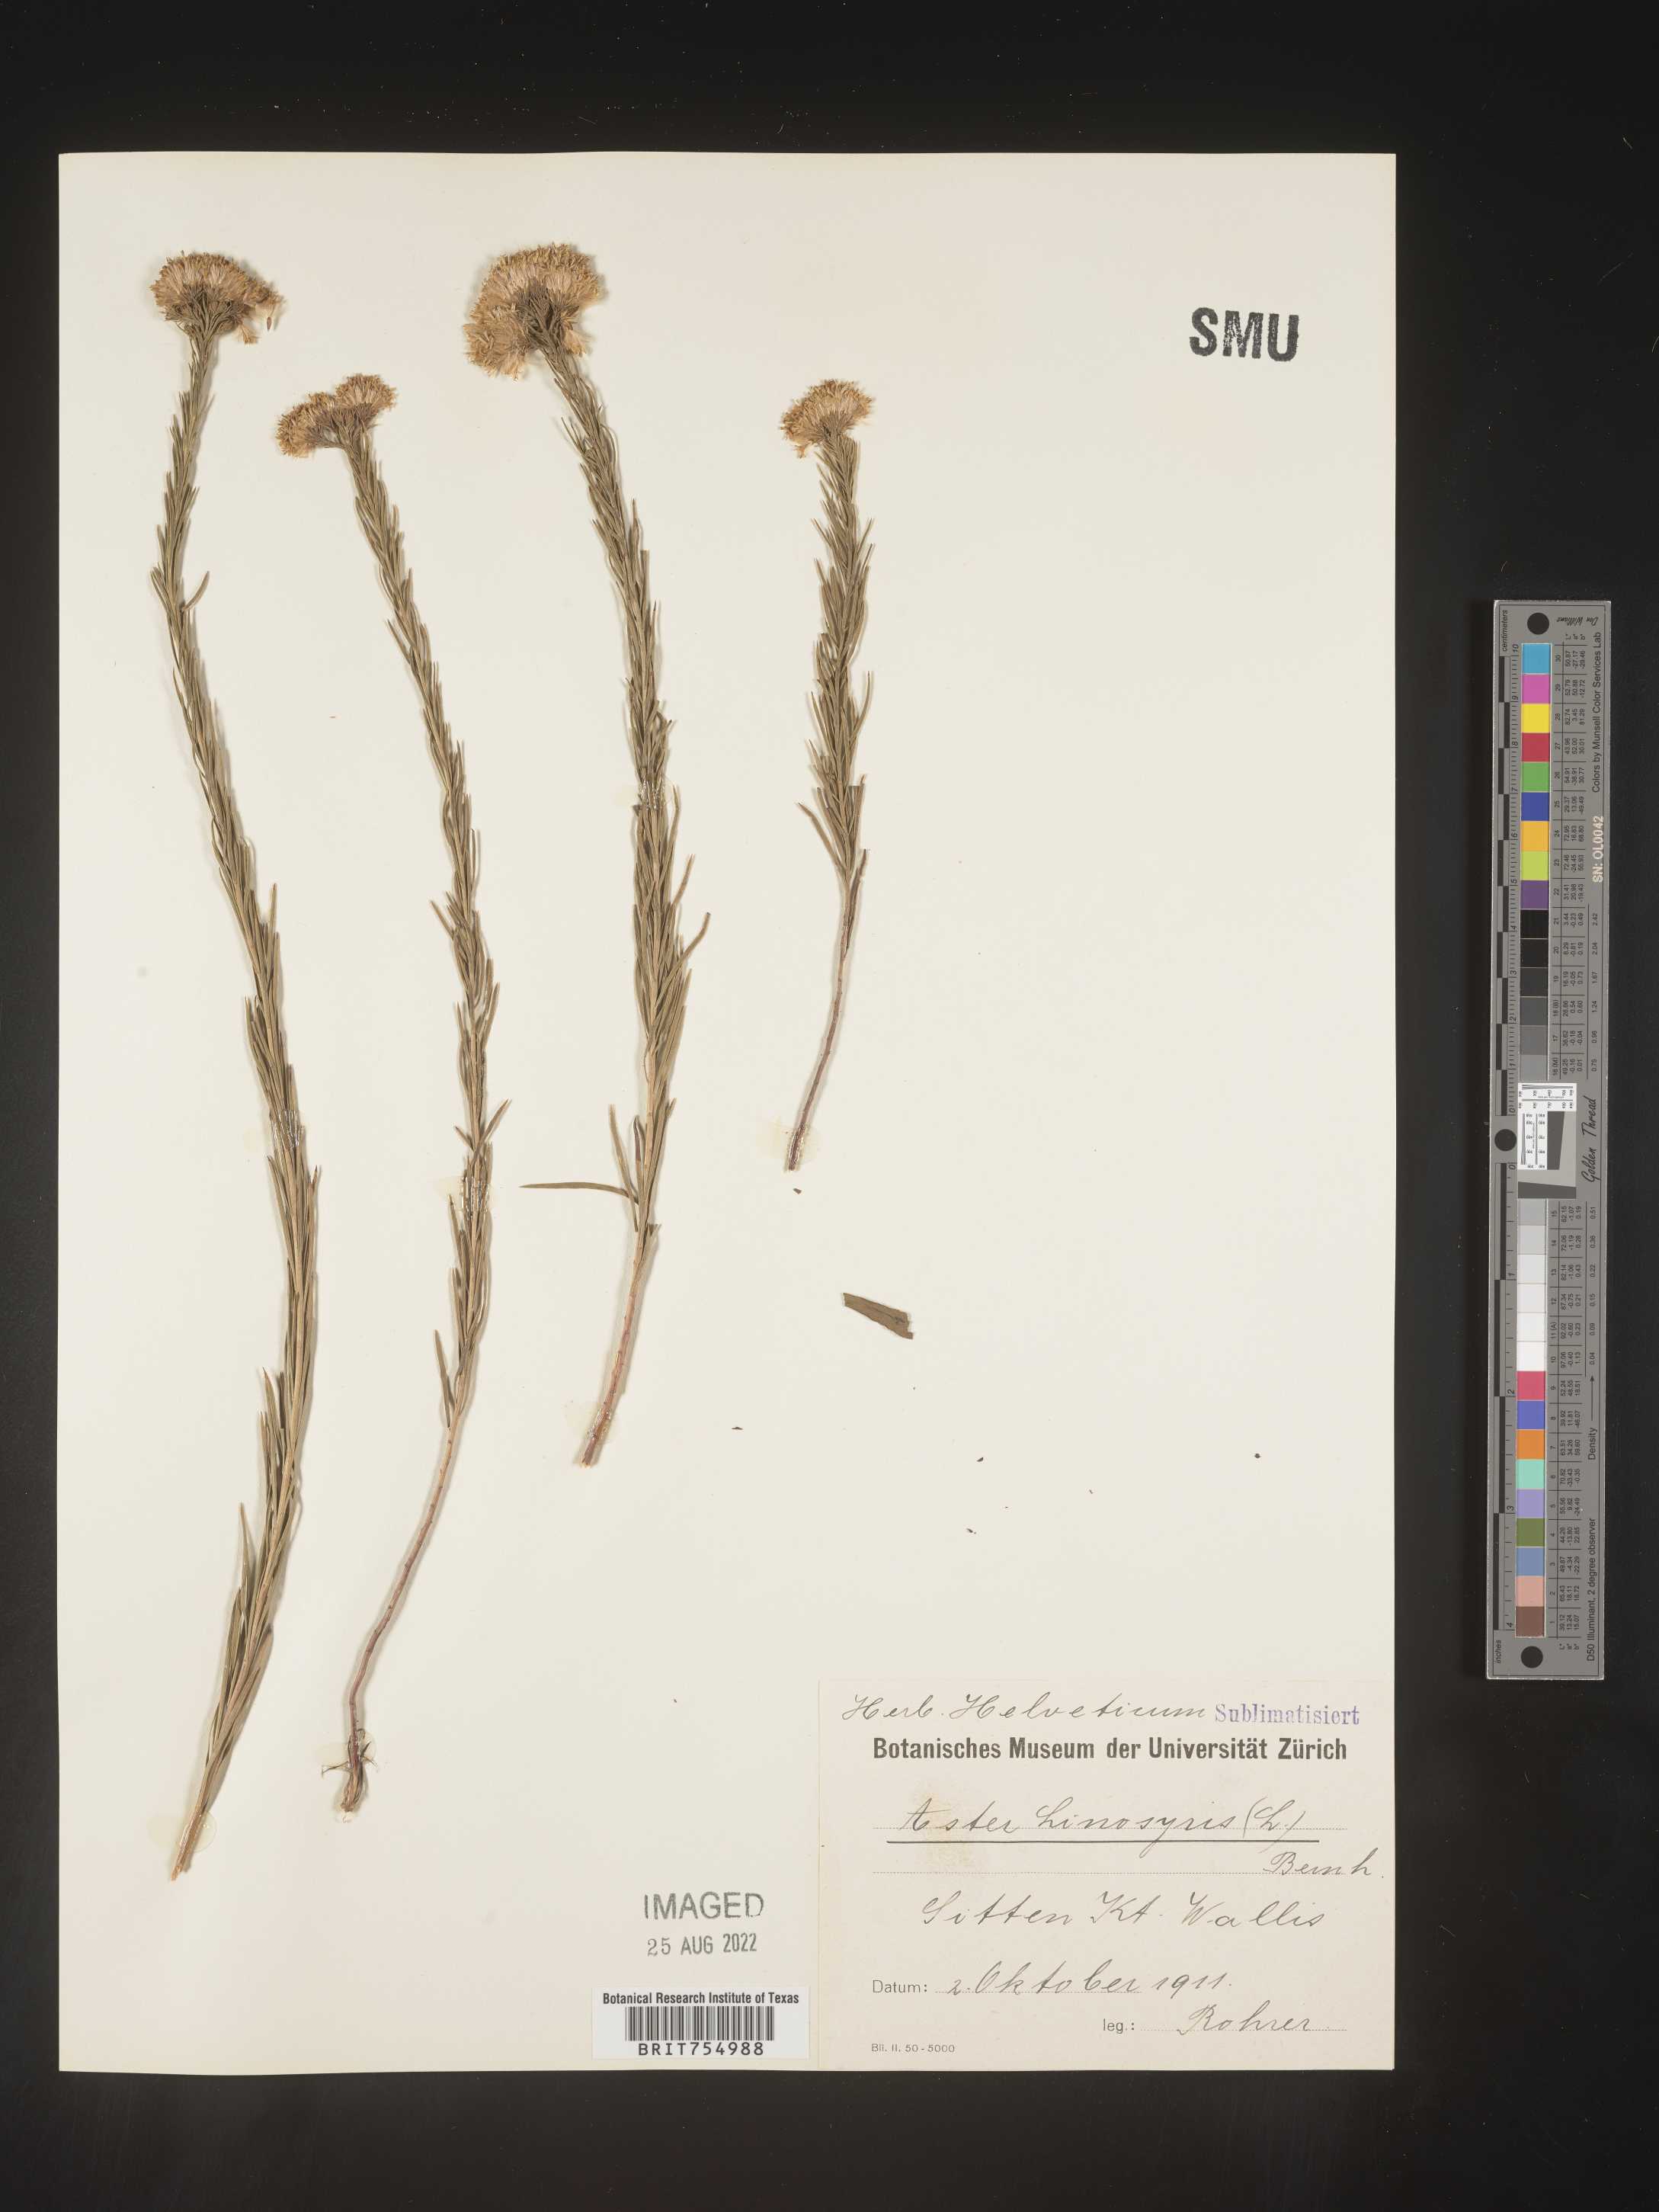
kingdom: Plantae
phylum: Tracheophyta
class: Magnoliopsida
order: Asterales
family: Asteraceae
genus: Symphyotrichum
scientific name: Symphyotrichum
